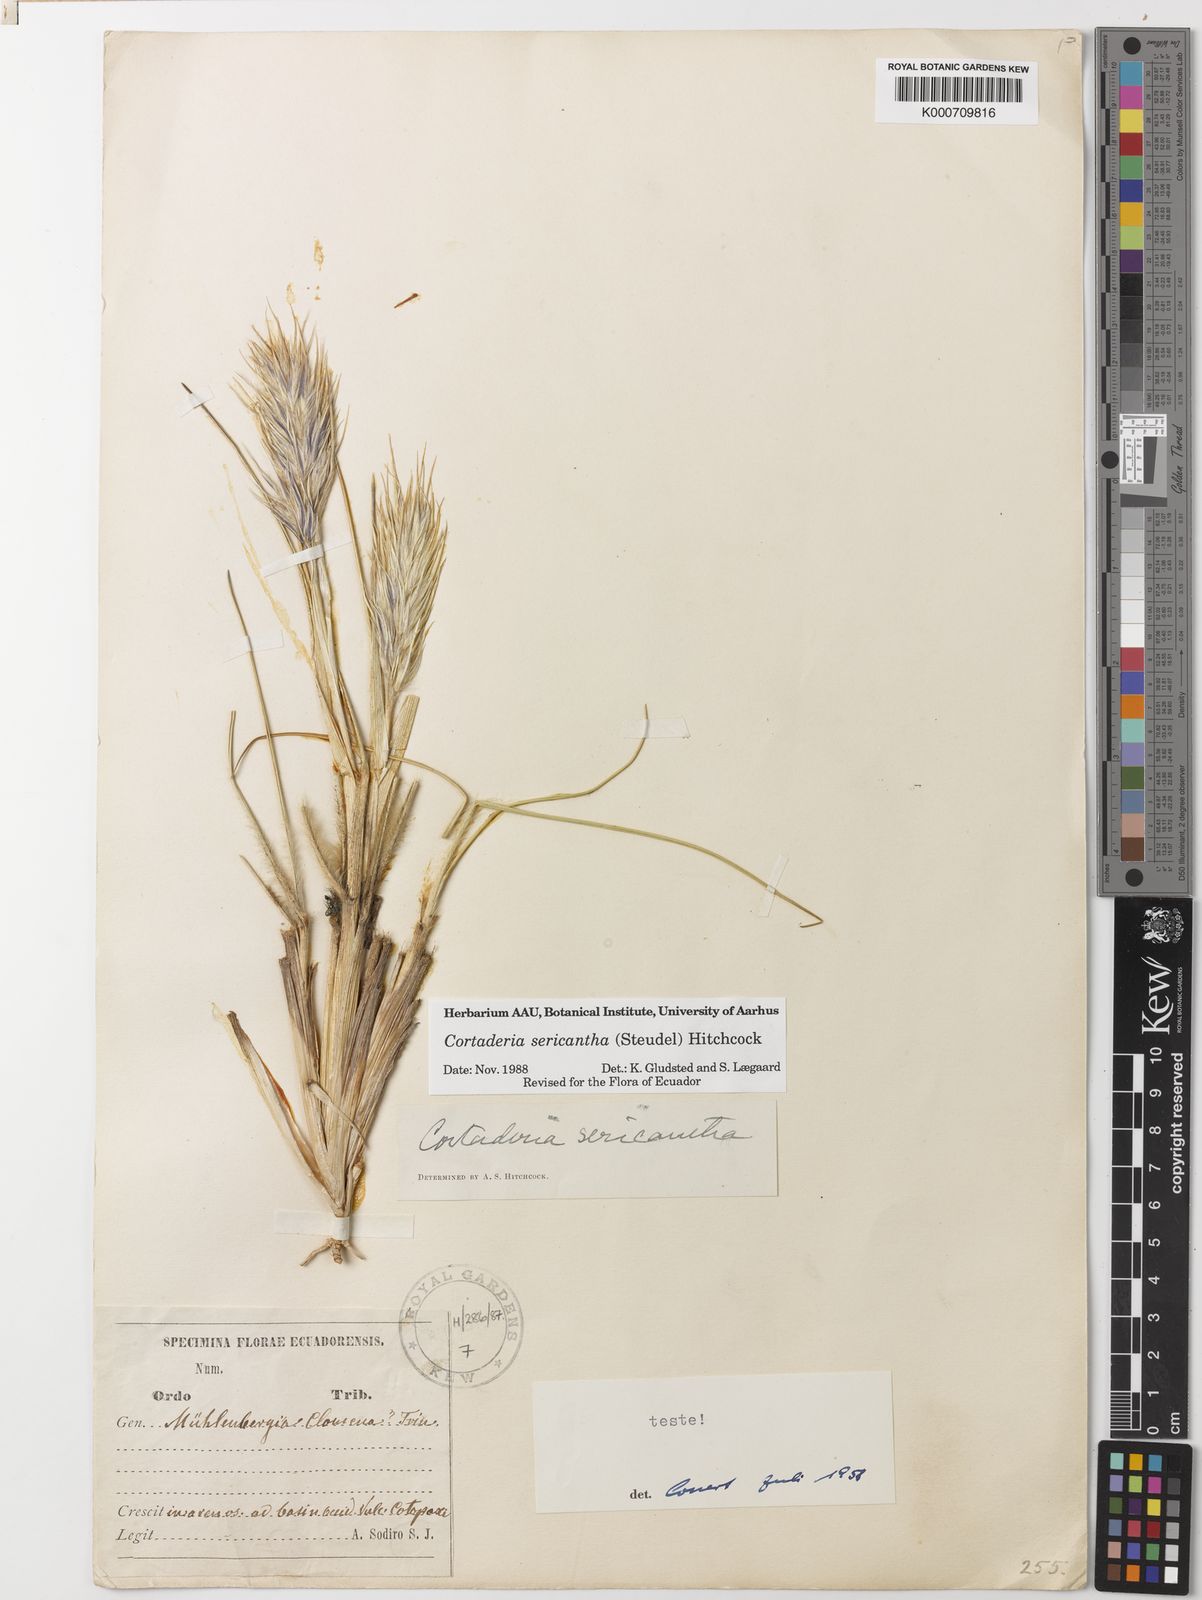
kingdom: Plantae
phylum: Tracheophyta
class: Liliopsida
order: Poales
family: Poaceae
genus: Cortaderia
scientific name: Cortaderia sericantha
